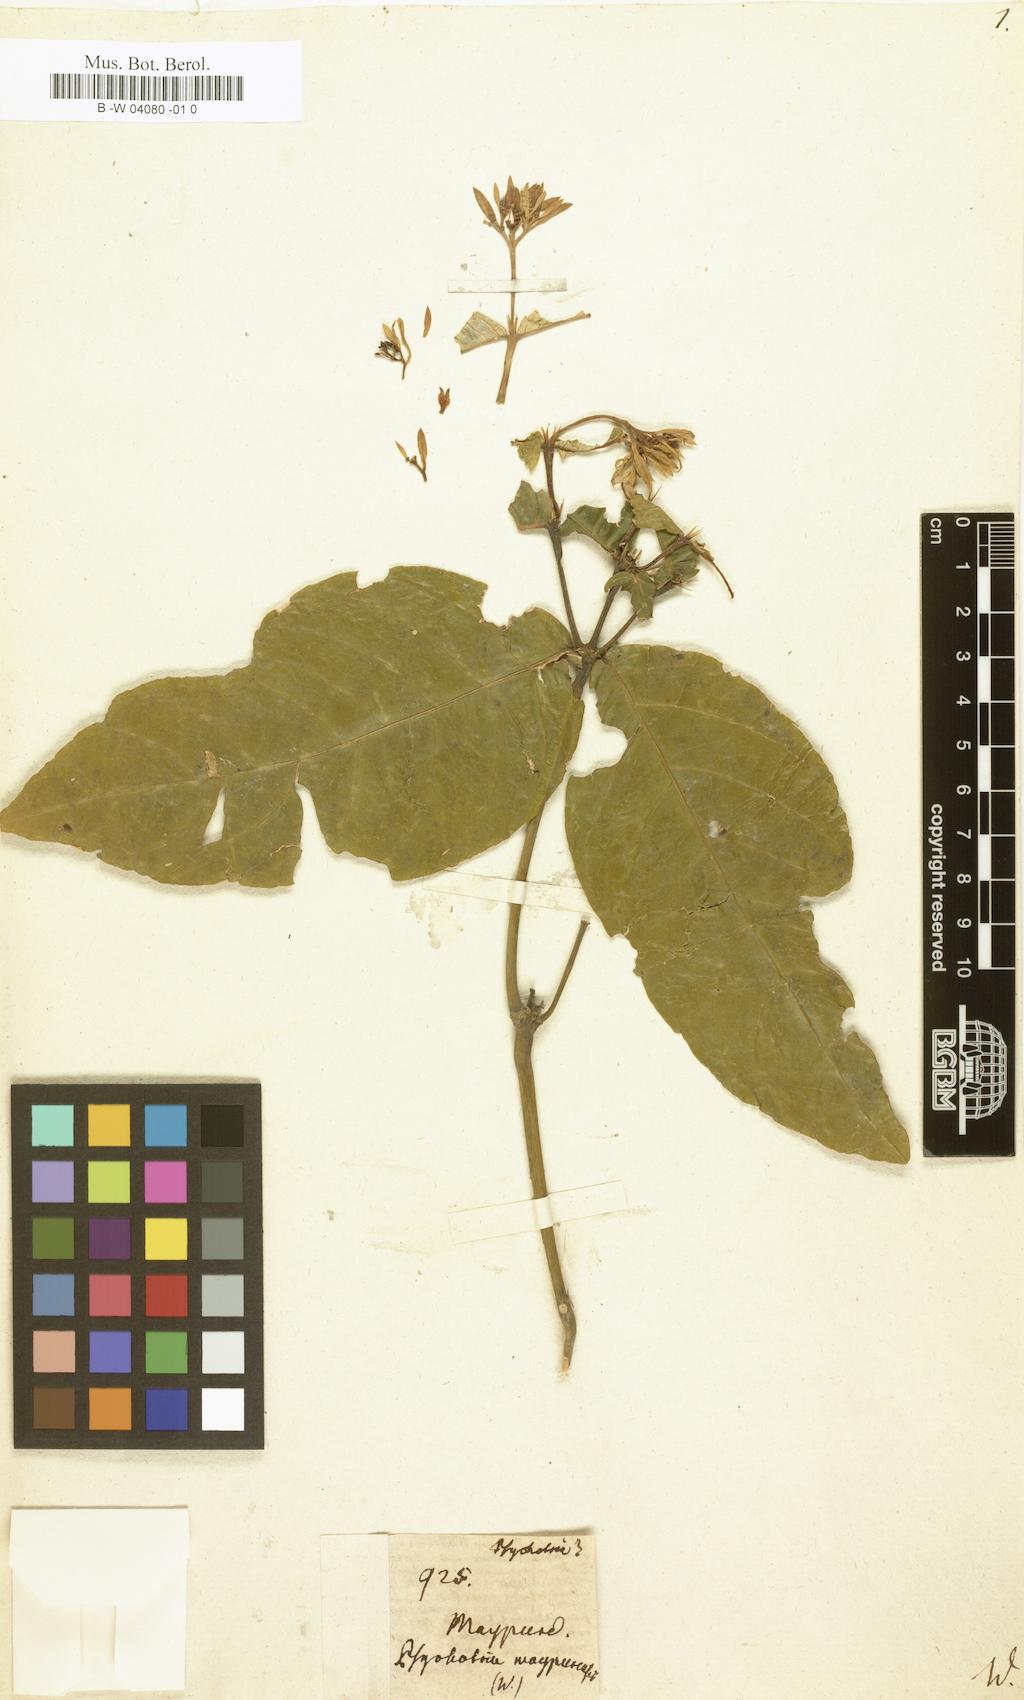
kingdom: Plantae
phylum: Tracheophyta
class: Magnoliopsida
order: Gentianales
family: Rubiaceae
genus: Palicourea
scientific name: Palicourea justiciifolia
